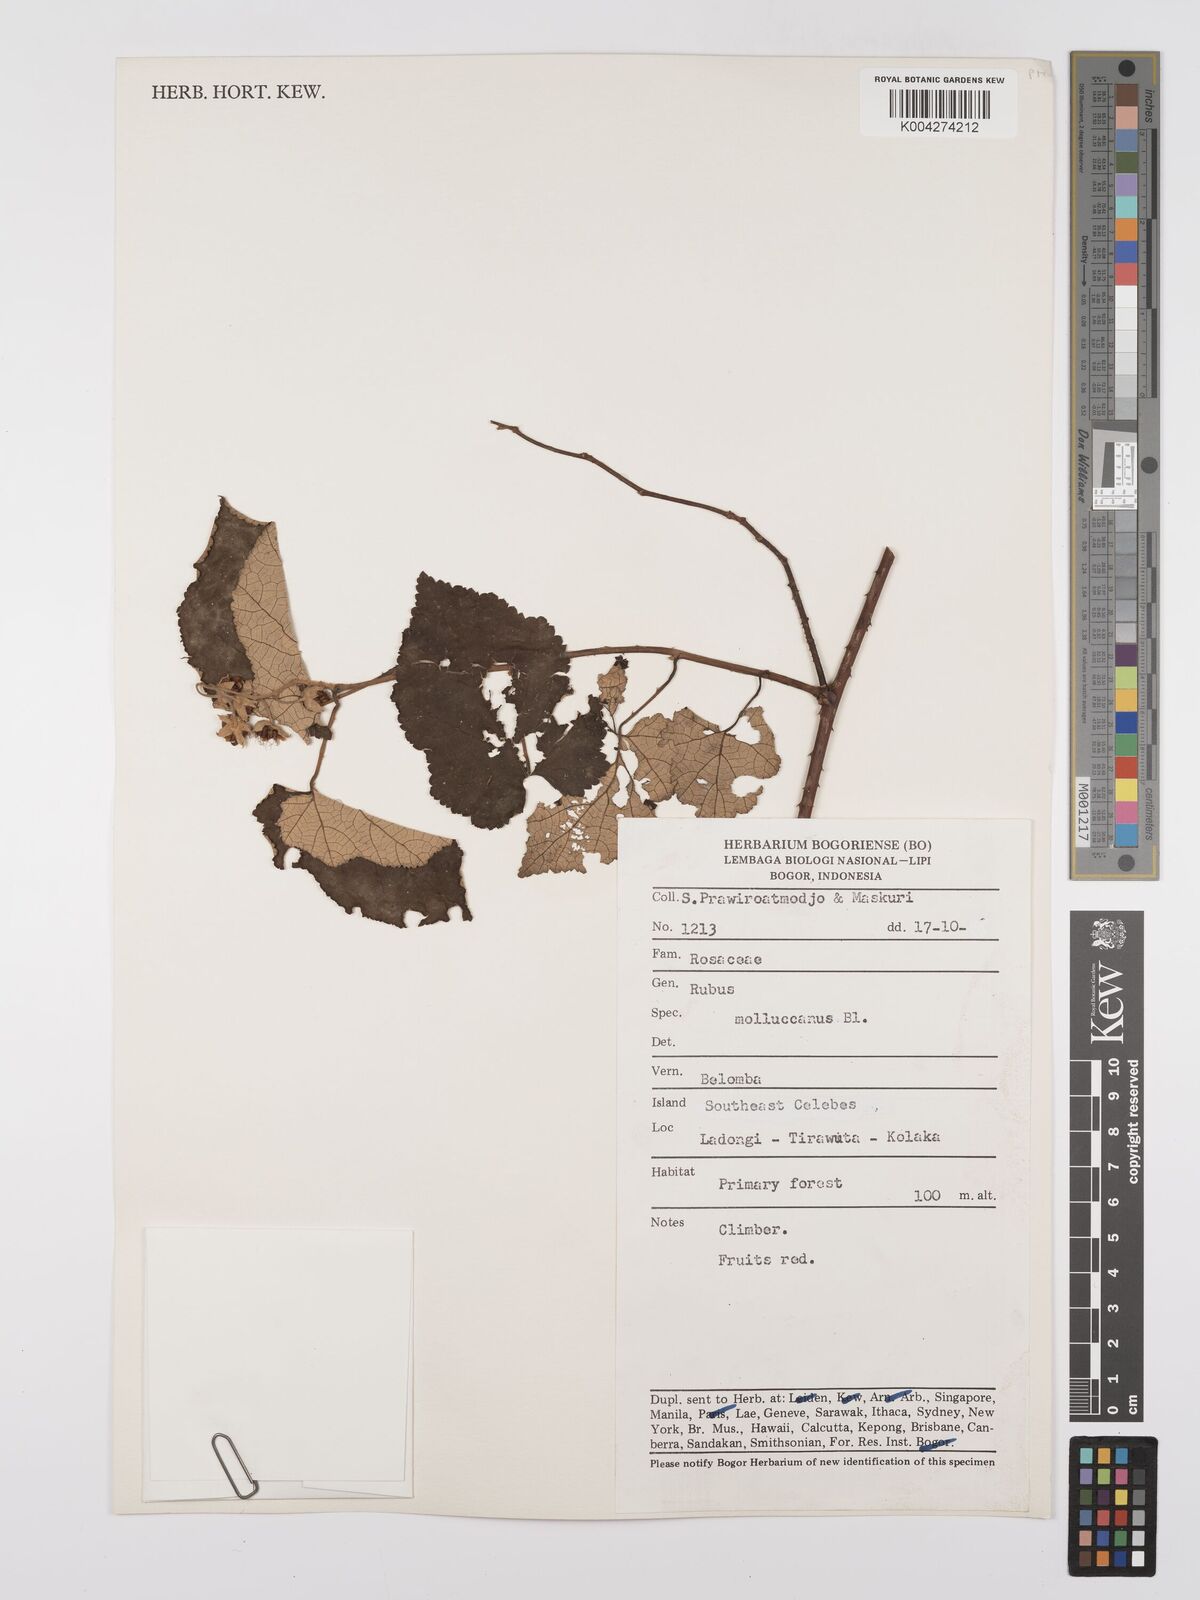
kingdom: Plantae
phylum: Tracheophyta
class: Magnoliopsida
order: Rosales
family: Rosaceae
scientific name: Rosaceae
